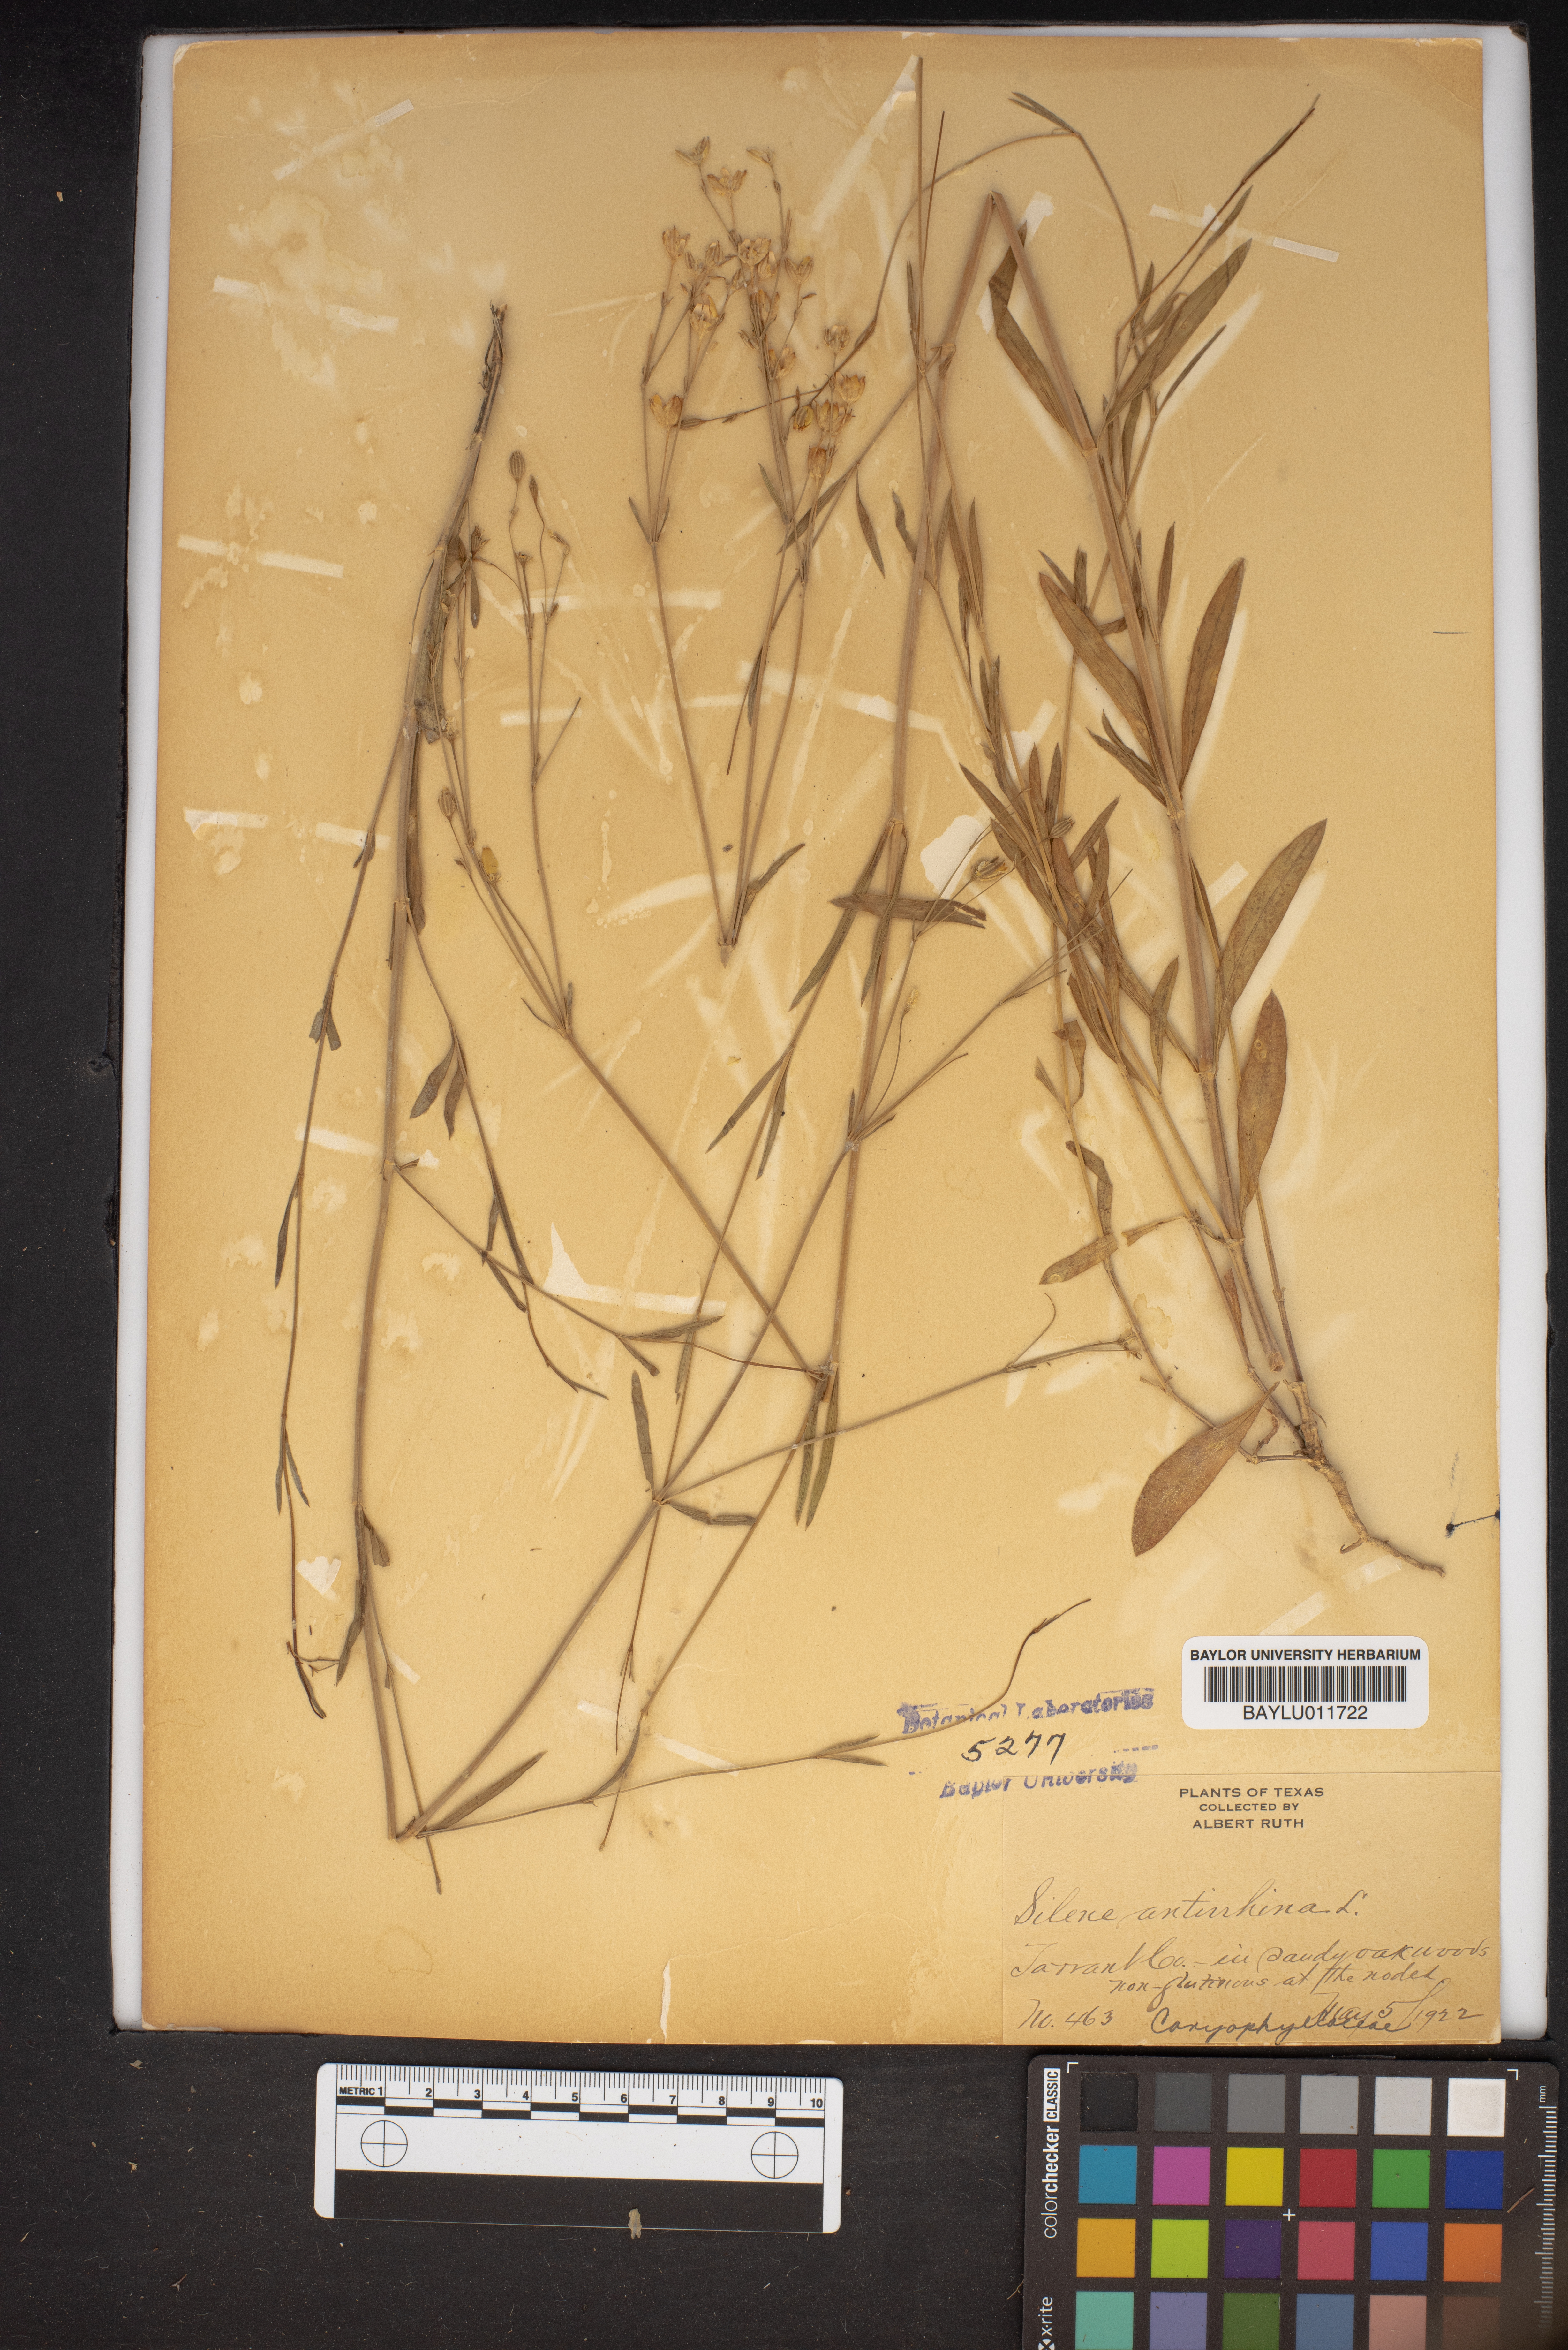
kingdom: Plantae
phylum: Tracheophyta
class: Magnoliopsida
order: Caryophyllales
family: Caryophyllaceae
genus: Silene
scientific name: Silene antirrhina
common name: Sleepy catchfly
